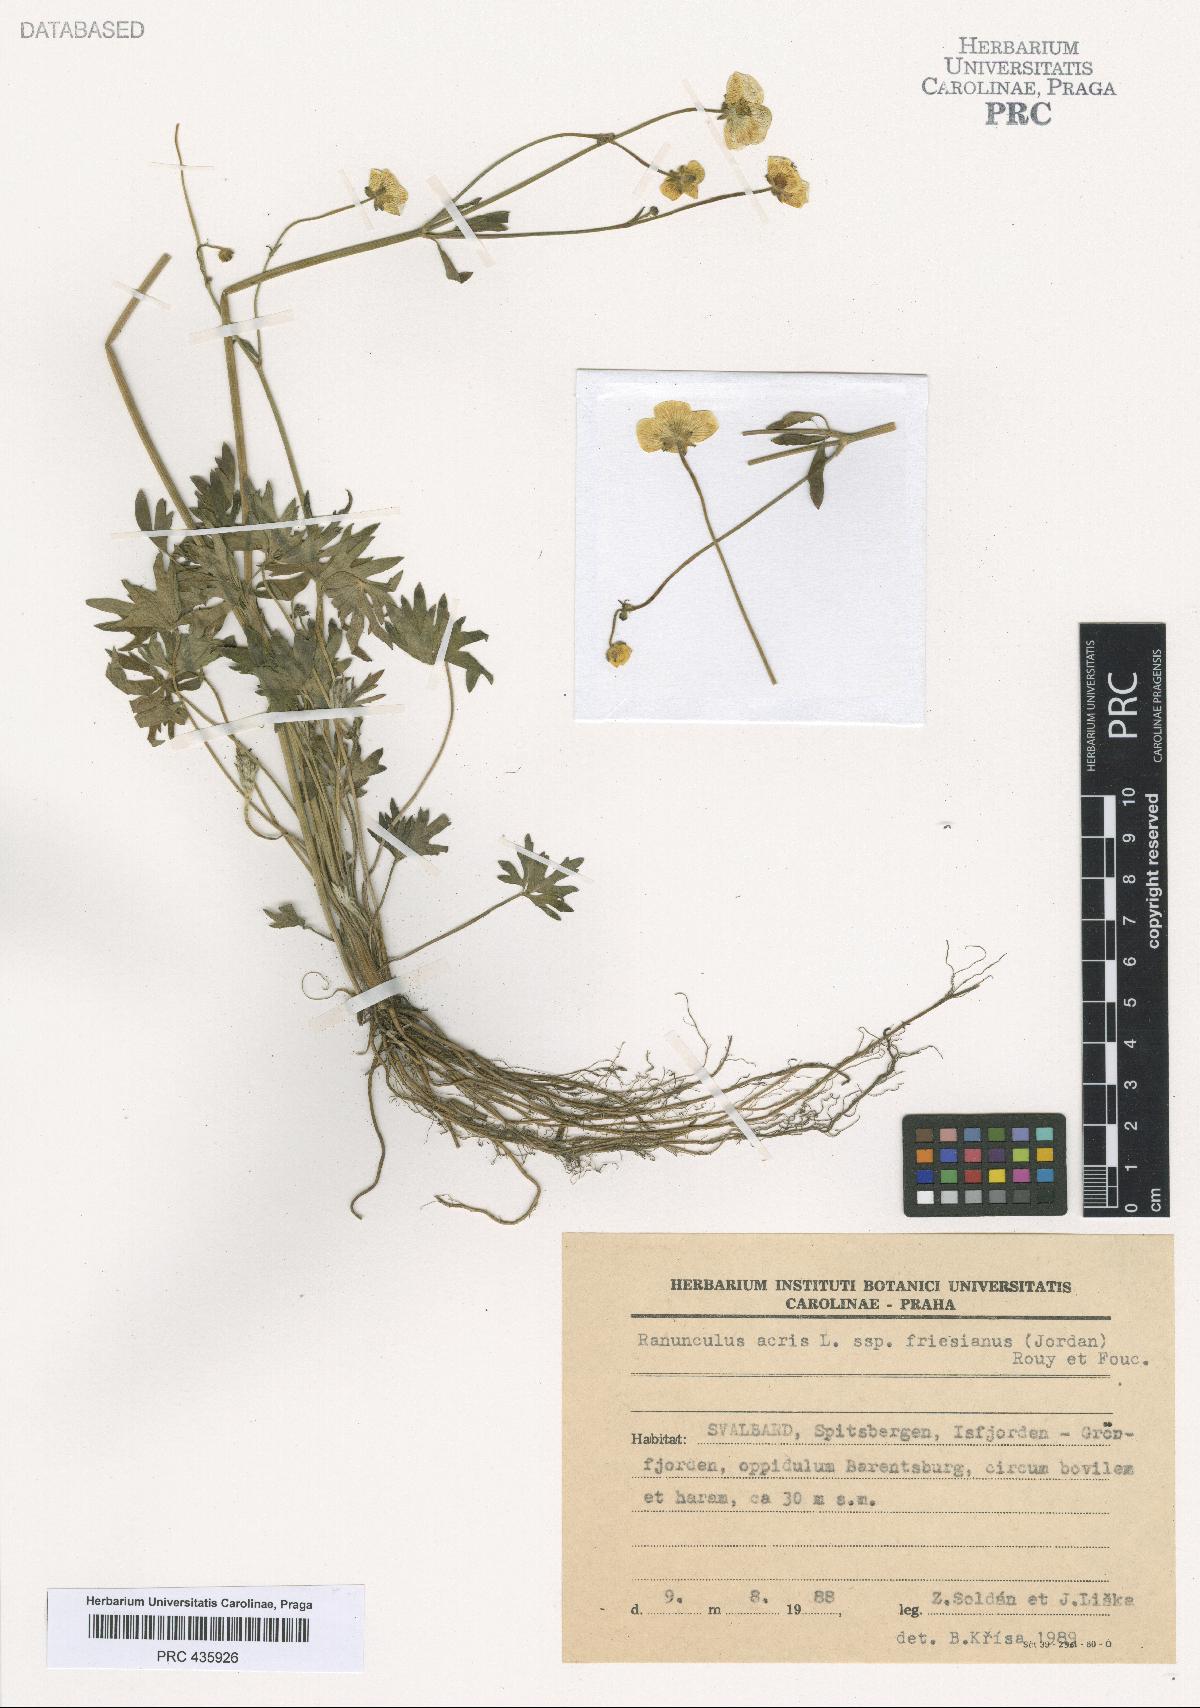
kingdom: Plantae
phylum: Tracheophyta
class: Magnoliopsida
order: Ranunculales
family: Ranunculaceae
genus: Ranunculus
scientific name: Ranunculus acris
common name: Meadow buttercup
